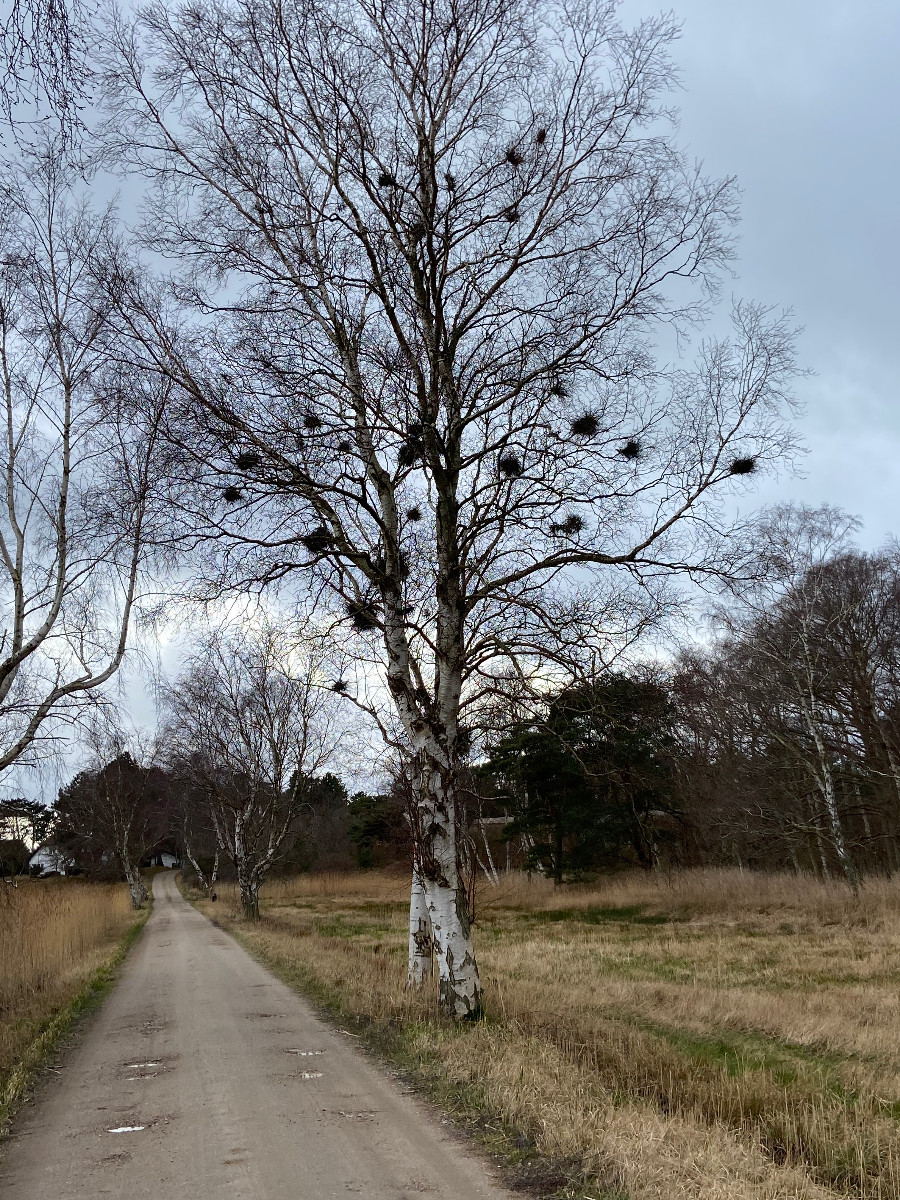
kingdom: Fungi
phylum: Ascomycota
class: Taphrinomycetes
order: Taphrinales
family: Taphrinaceae
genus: Taphrina
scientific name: Taphrina betulina
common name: hekse-sækdug
